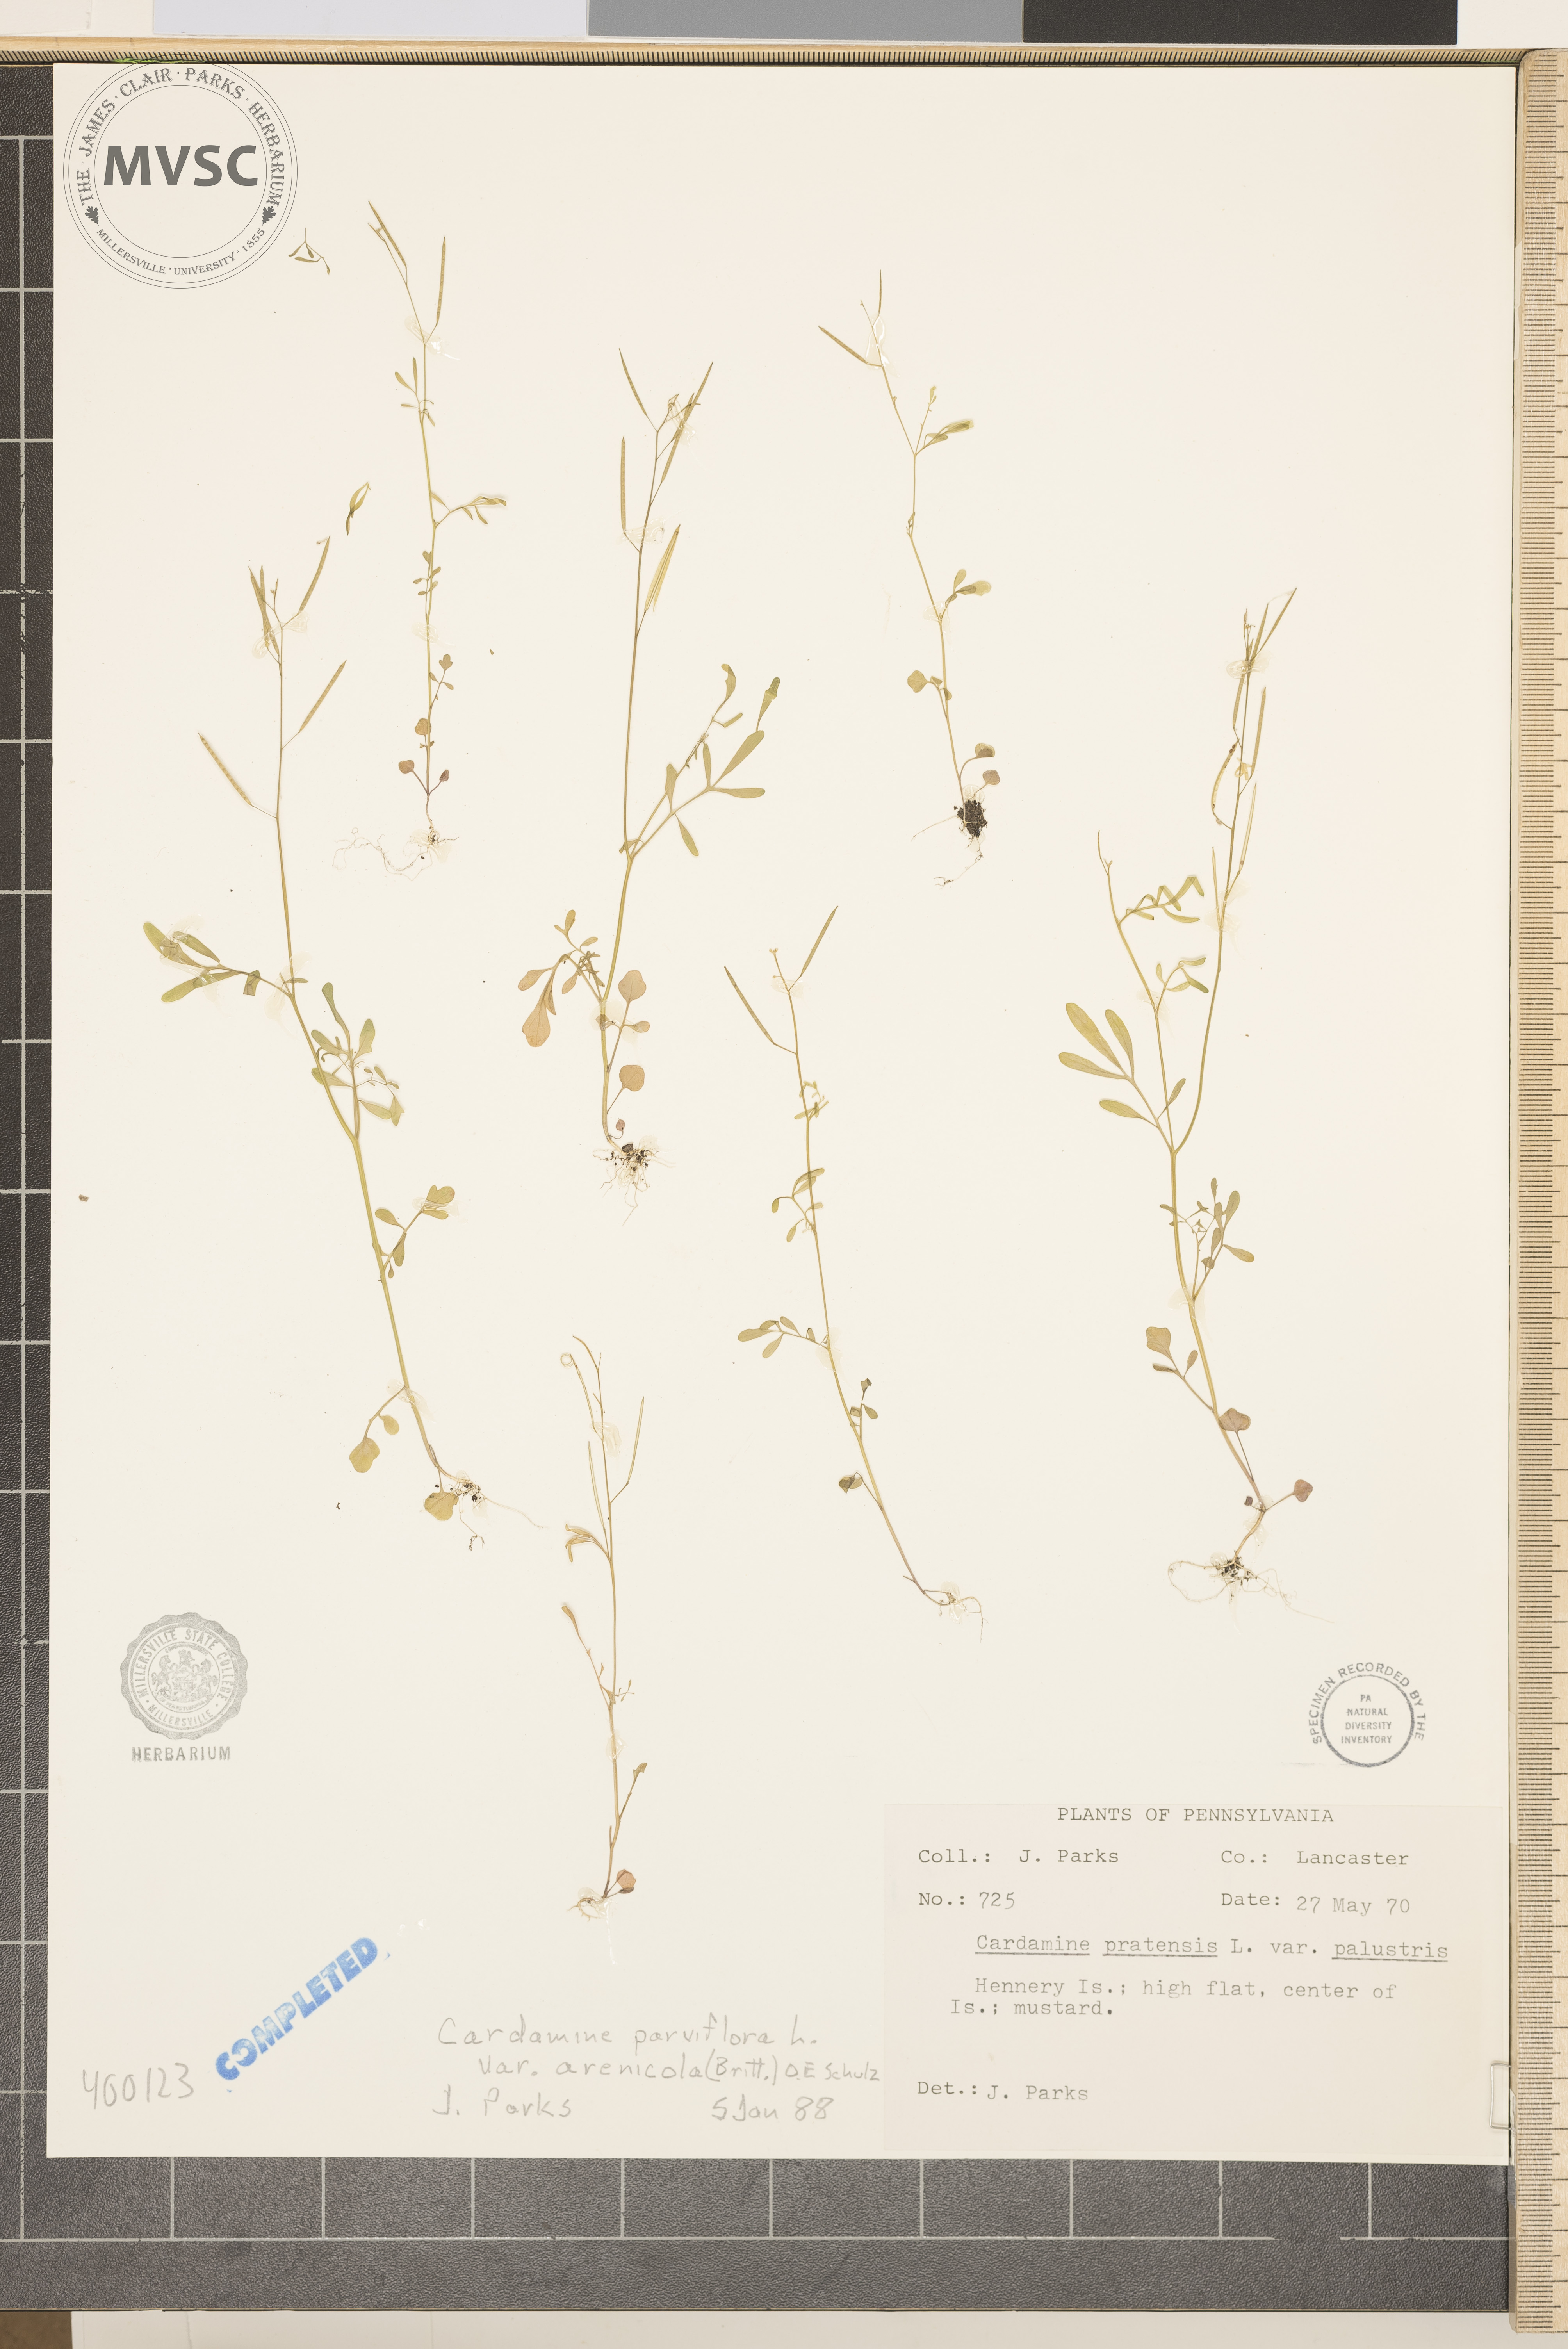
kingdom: Plantae
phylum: Tracheophyta
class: Magnoliopsida
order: Brassicales
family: Brassicaceae
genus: Cardamine
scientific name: Cardamine parviflora
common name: Sand bittercress
